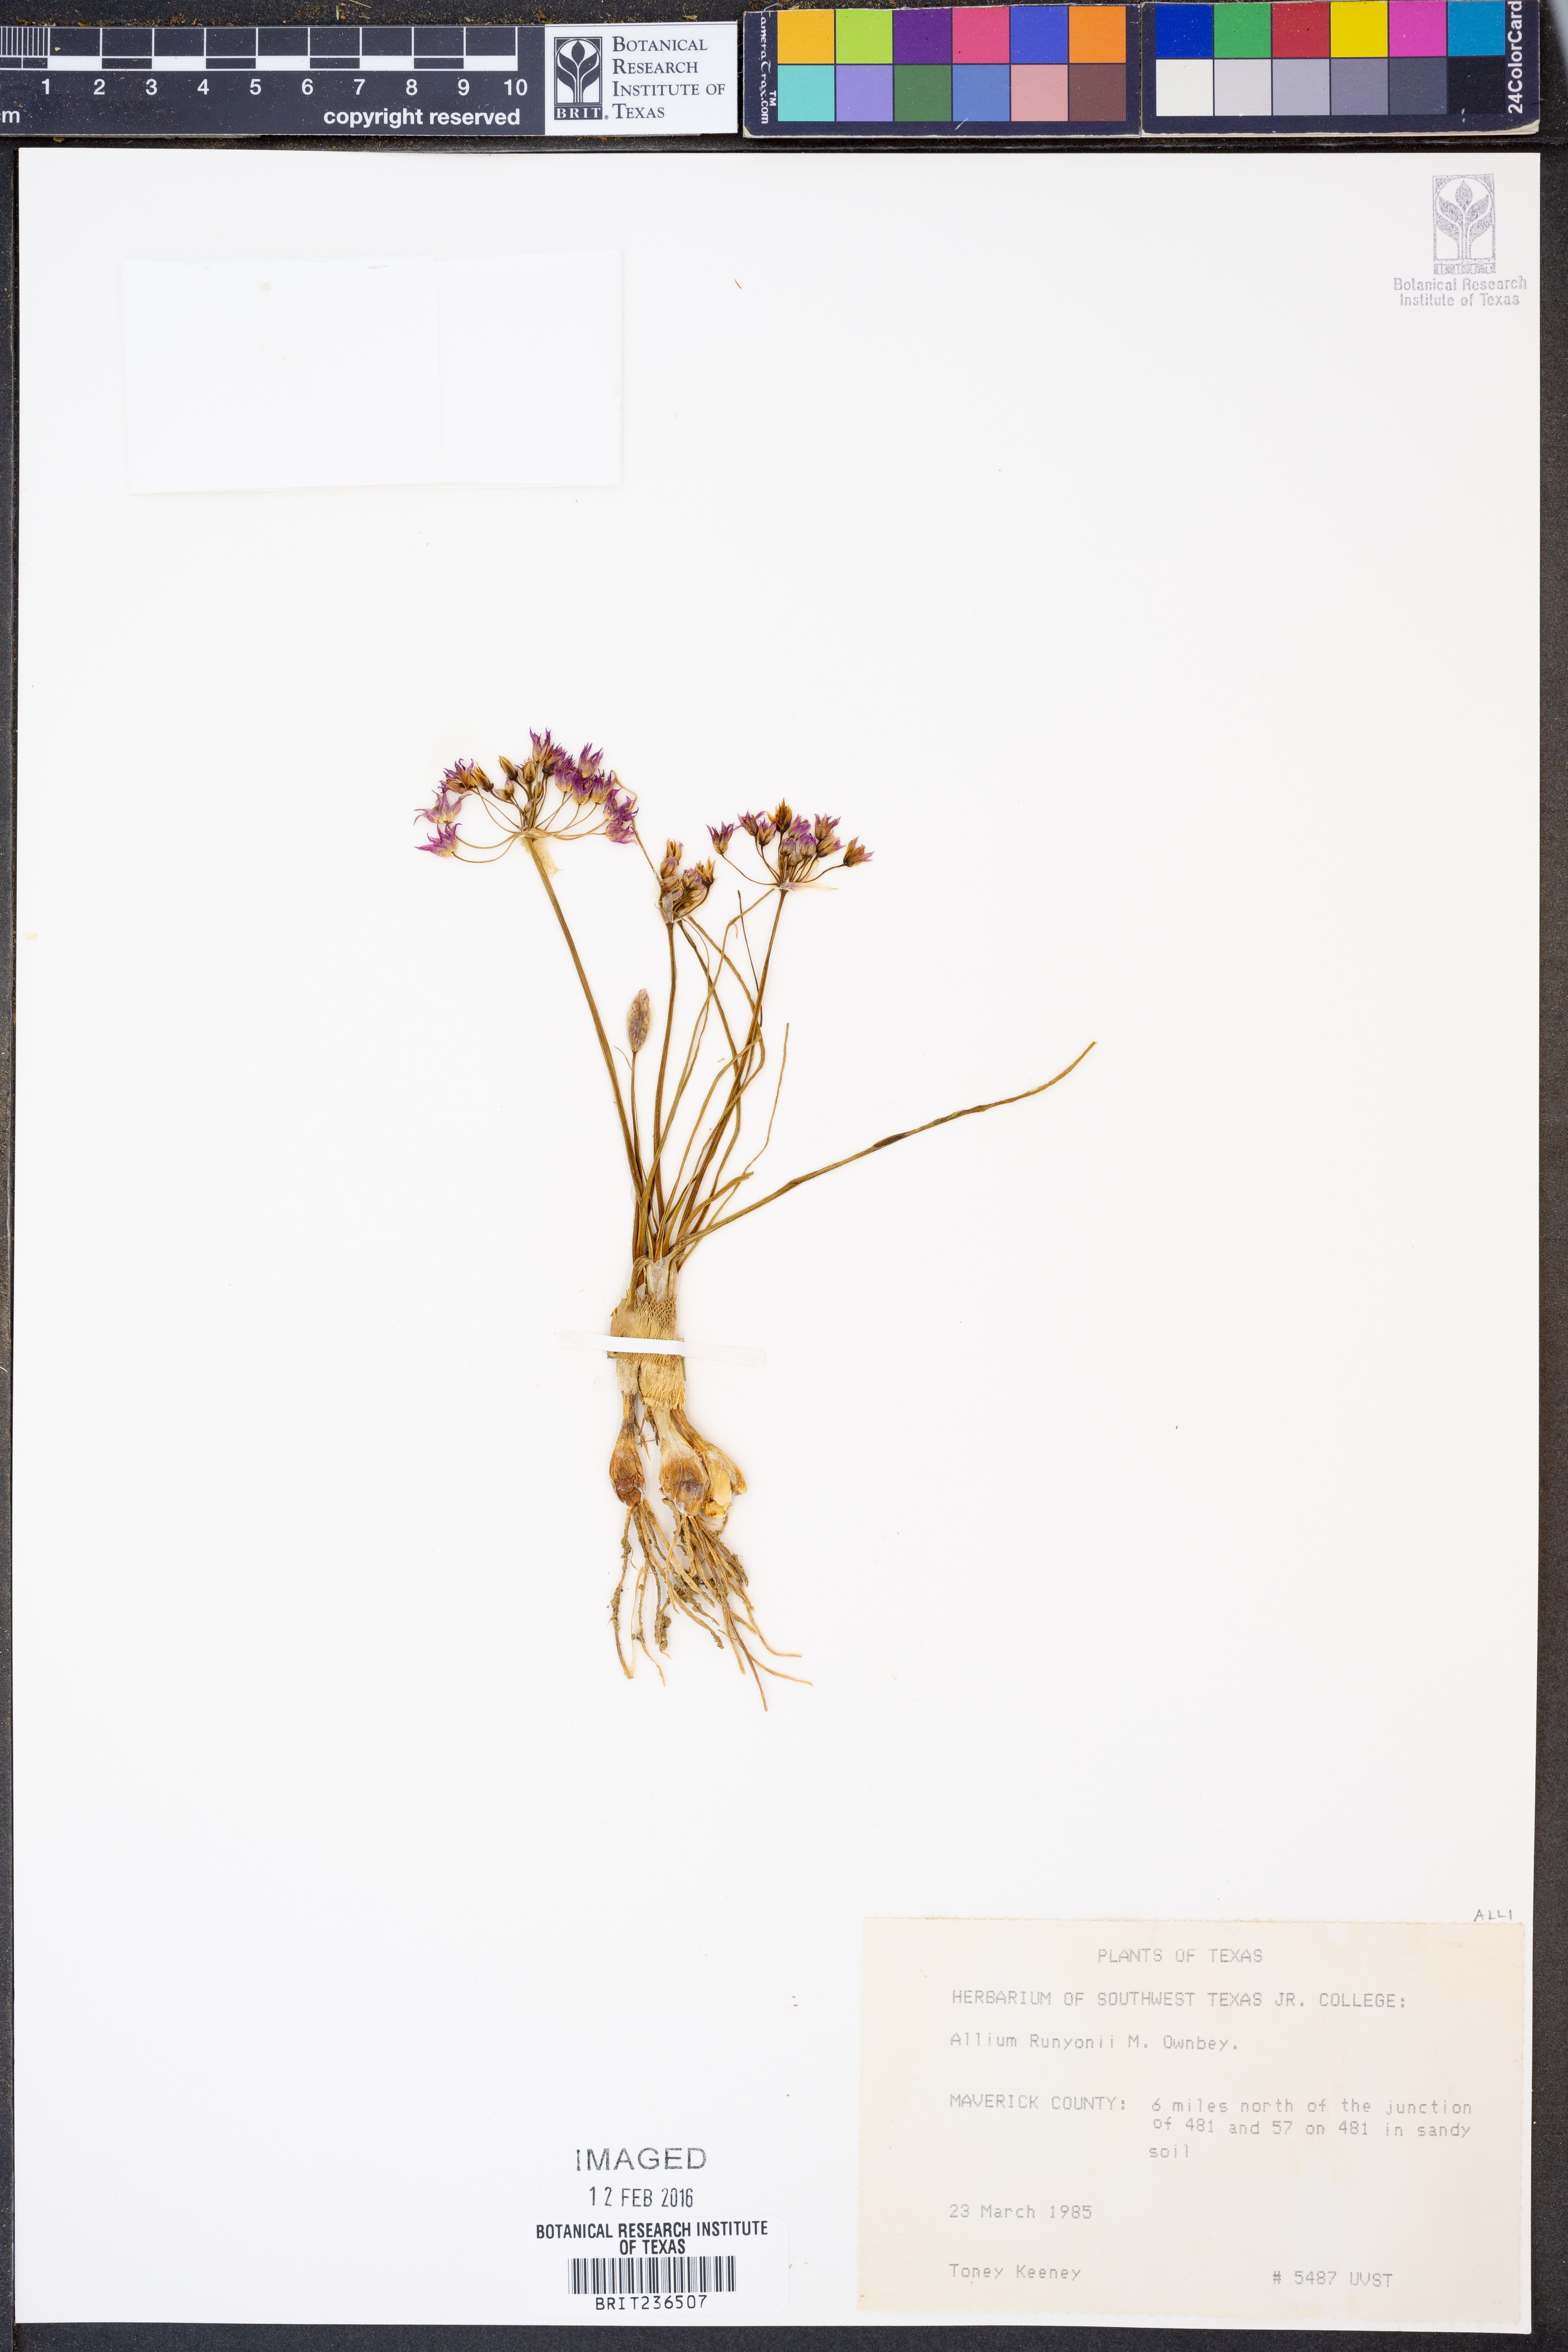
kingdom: Plantae
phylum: Tracheophyta
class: Liliopsida
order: Asparagales
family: Amaryllidaceae
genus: Allium
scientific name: Allium runyonii
